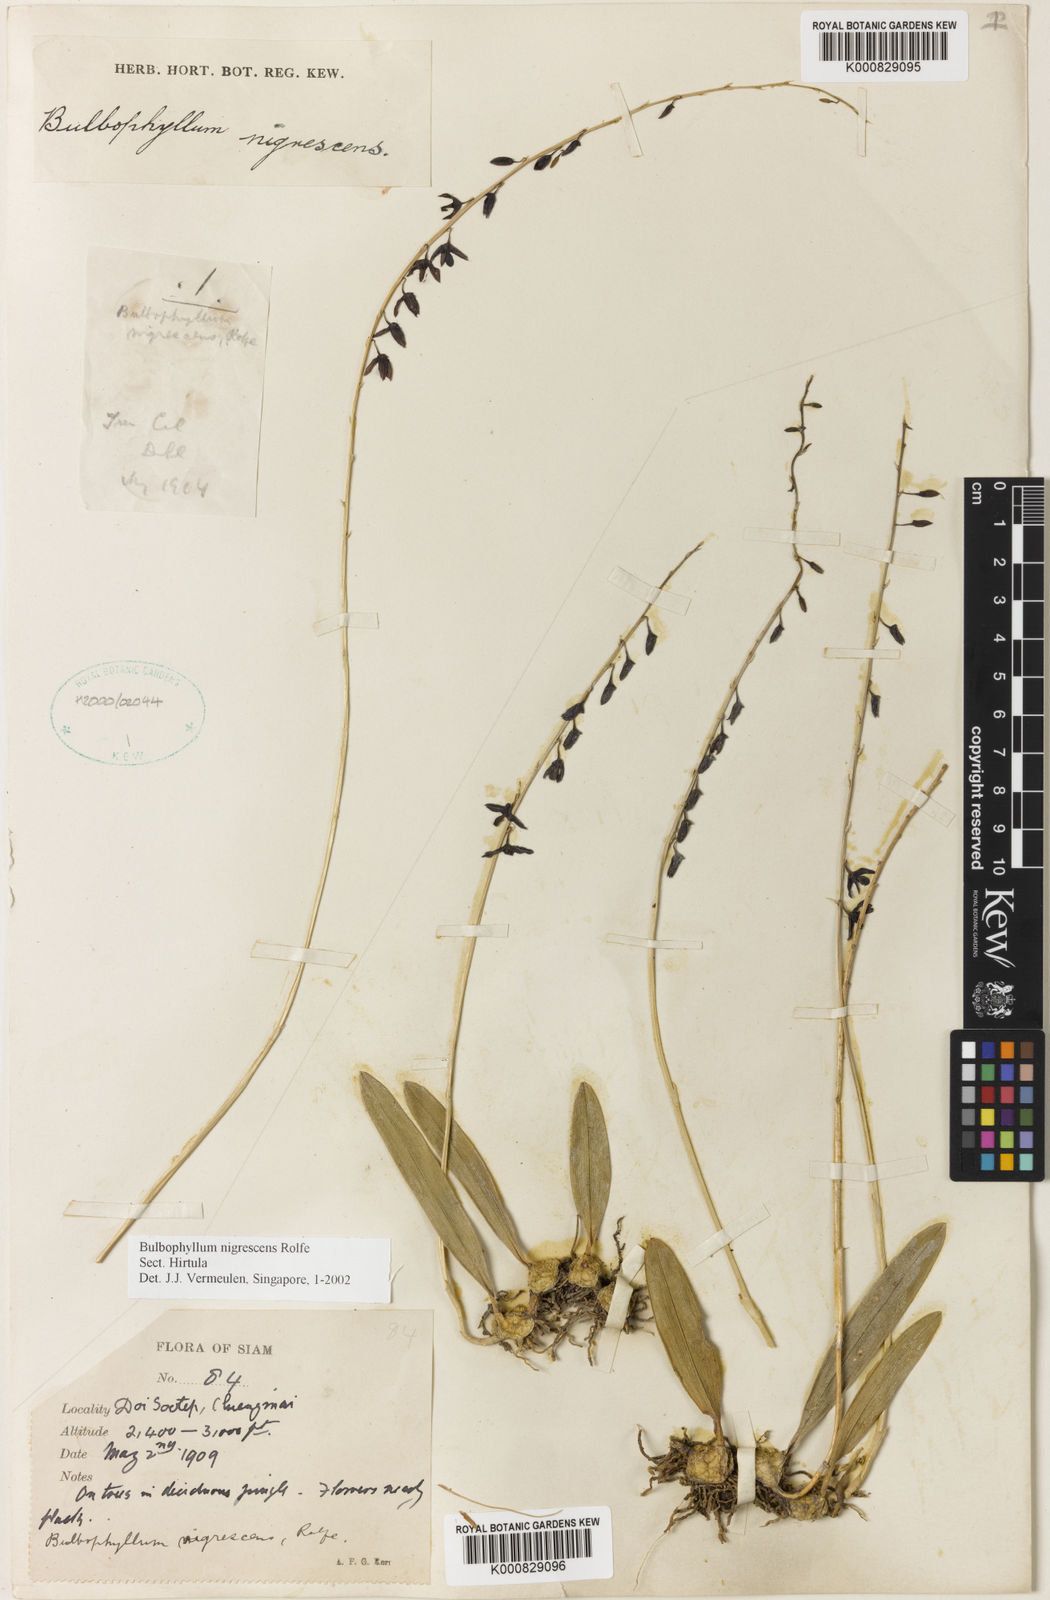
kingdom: Plantae
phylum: Tracheophyta
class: Liliopsida
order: Asparagales
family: Orchidaceae
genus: Bulbophyllum
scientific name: Bulbophyllum nigrescens
